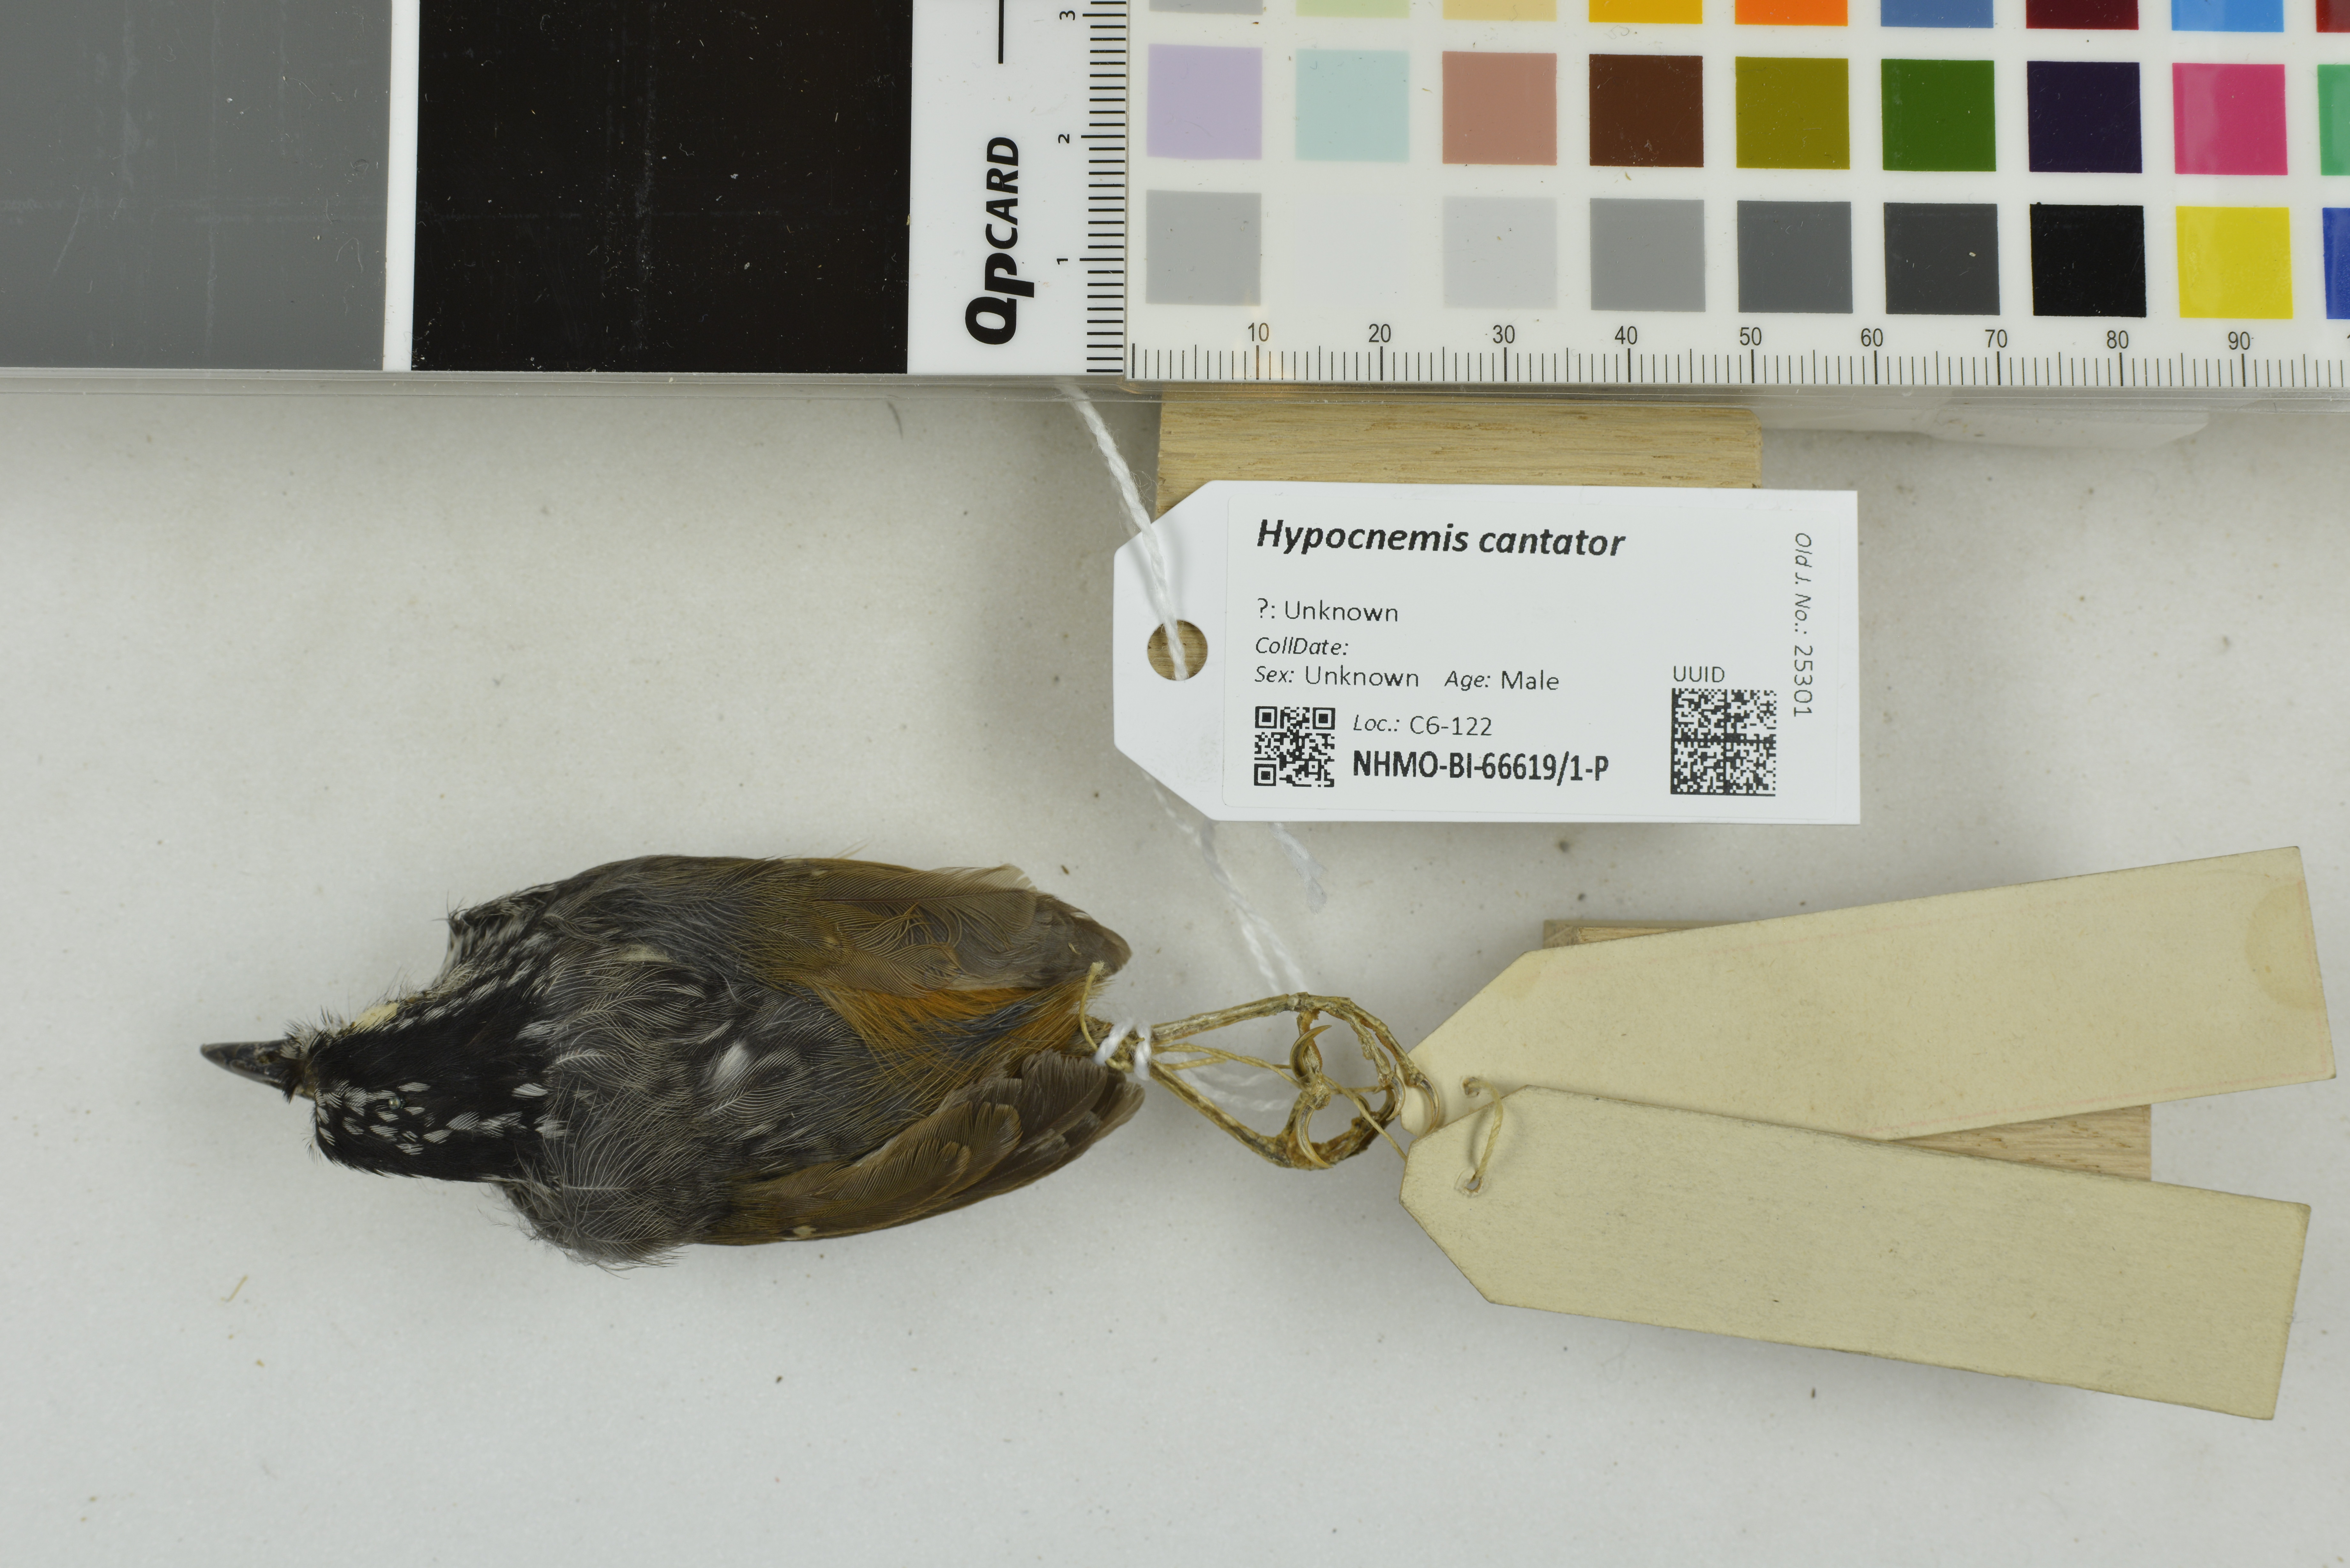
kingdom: Animalia
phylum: Chordata
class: Aves
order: Passeriformes
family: Thamnophilidae
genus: Hypocnemis
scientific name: Hypocnemis cantator
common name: Guianan warbling-antbird
